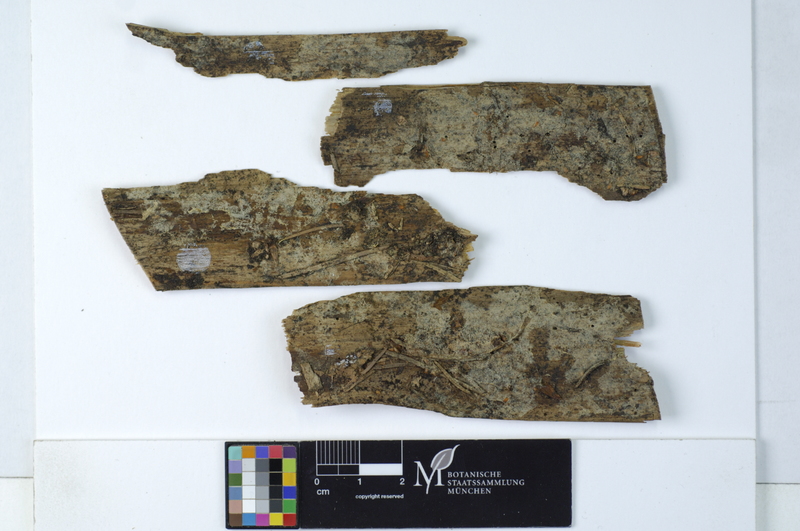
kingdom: Fungi
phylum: Basidiomycota
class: Agaricomycetes
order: Cantharellales
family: Botryobasidiaceae
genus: Botryobasidium
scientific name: Botryobasidium subcoronatum
